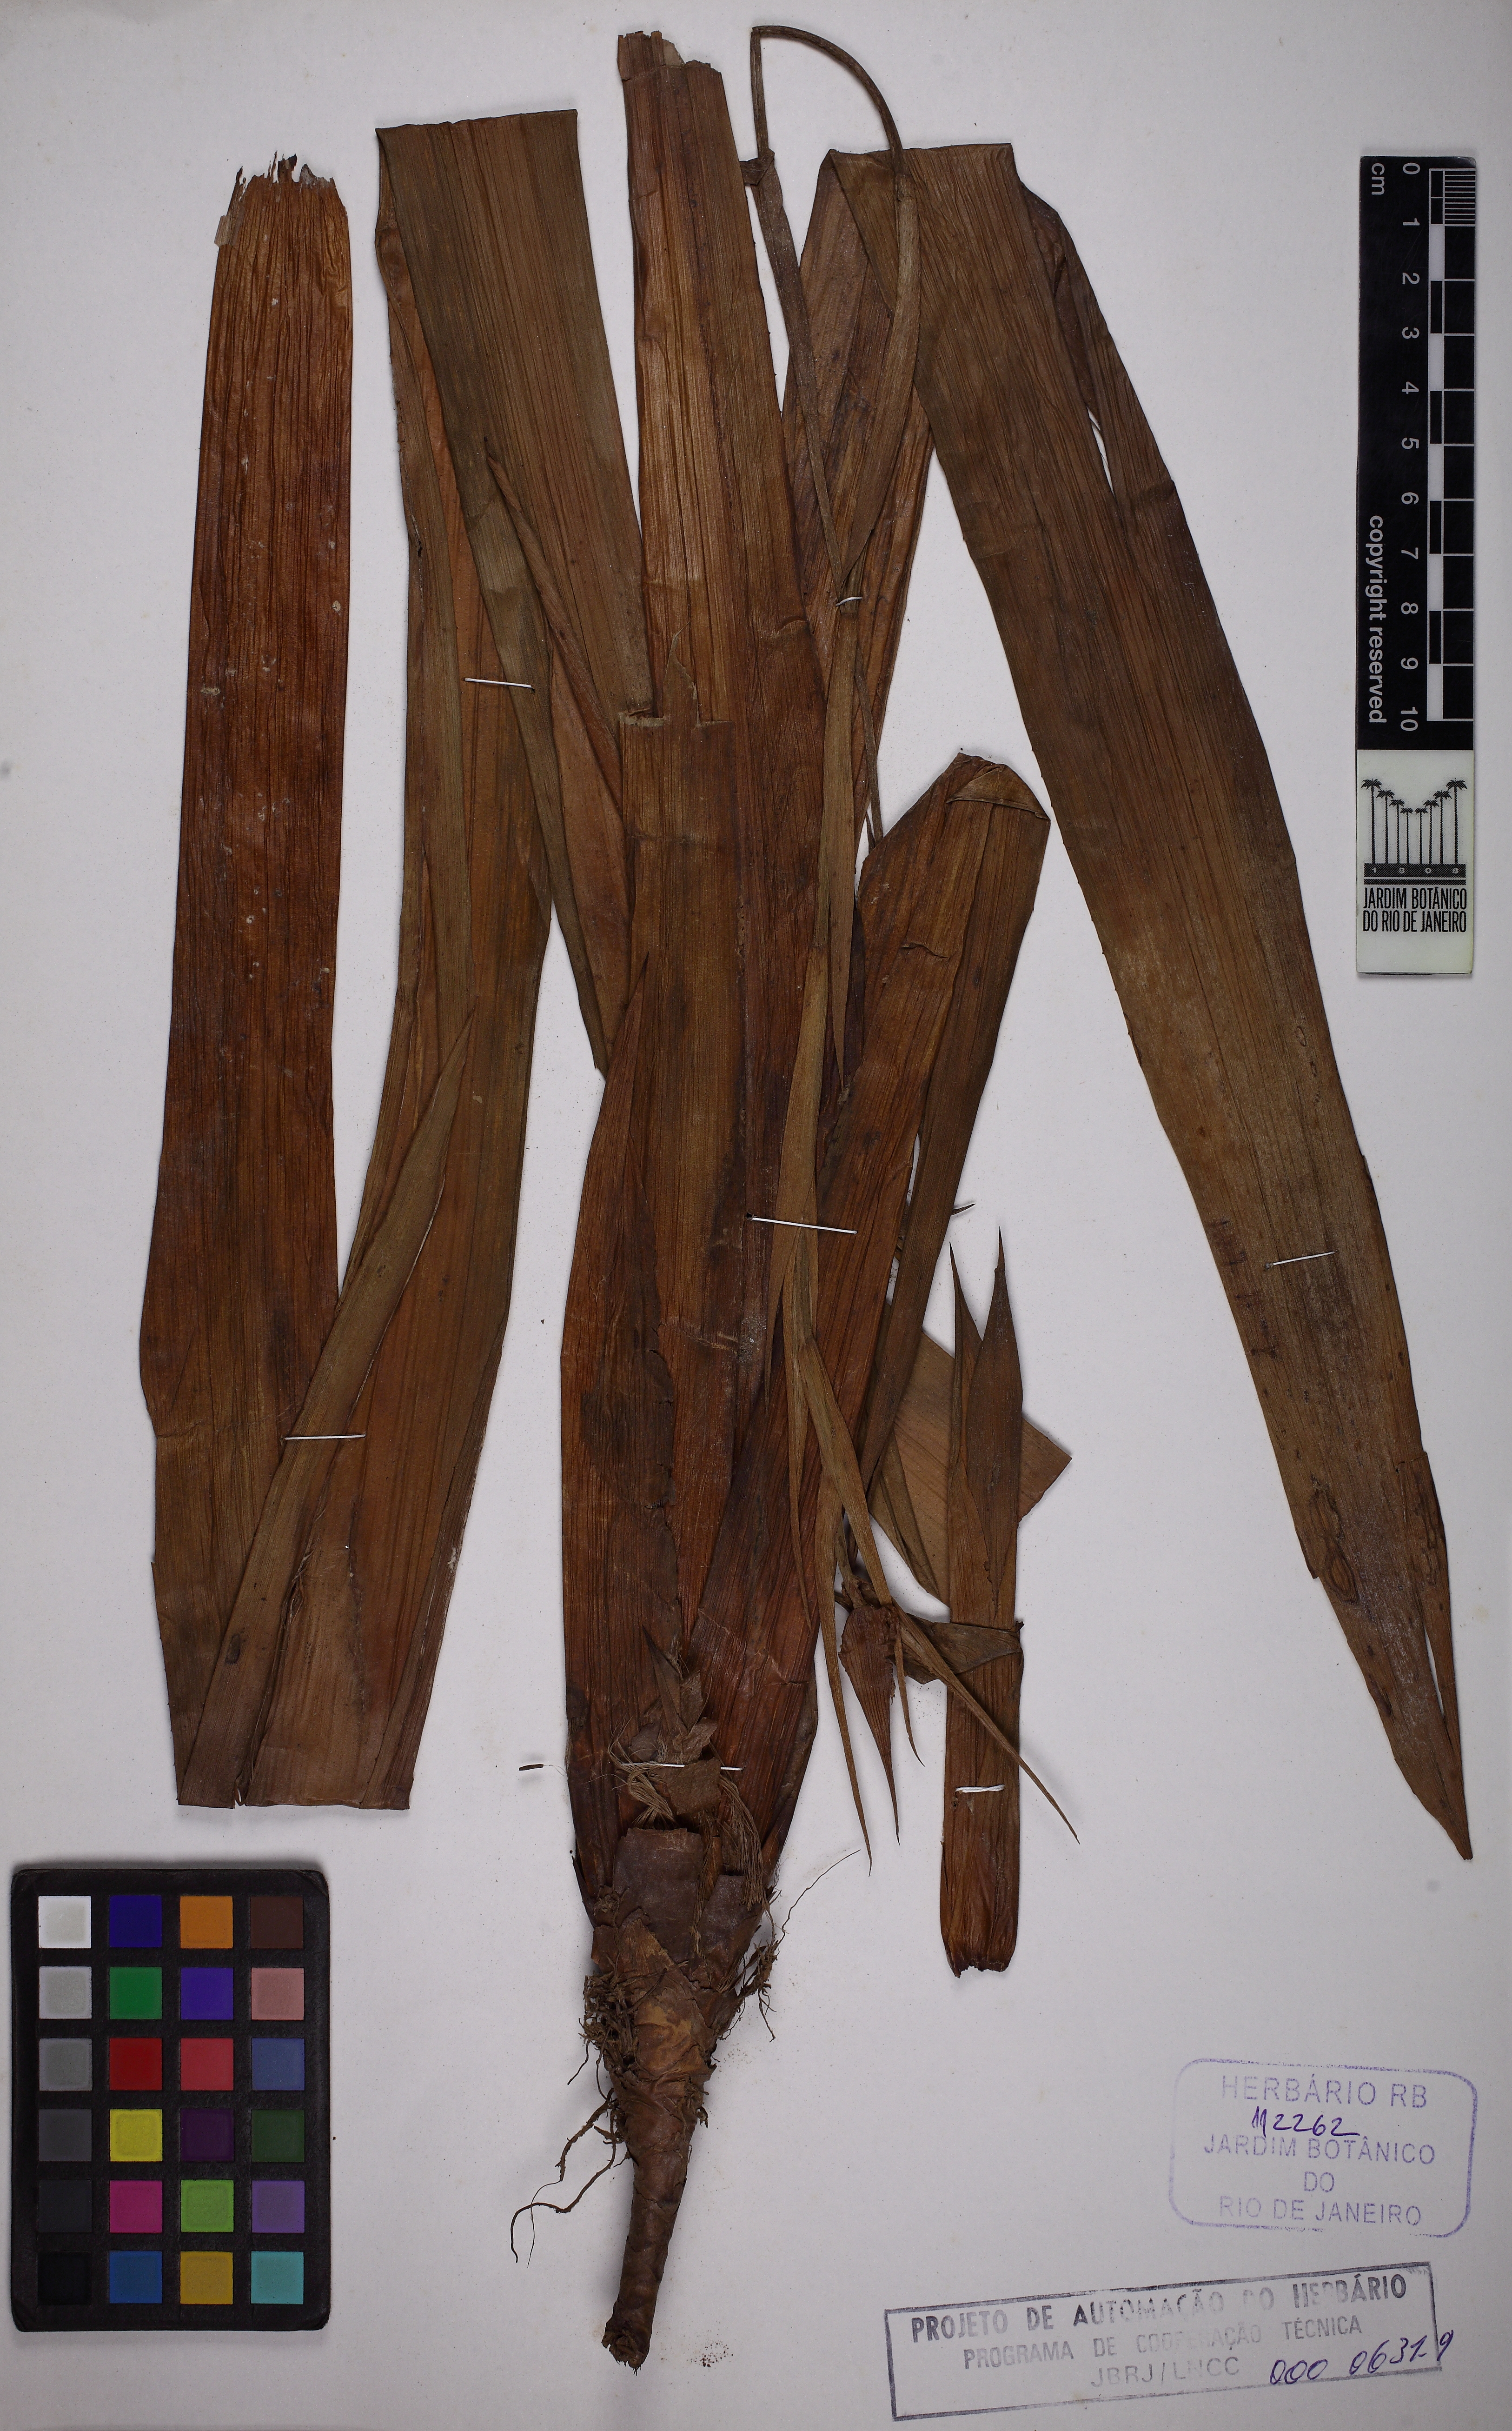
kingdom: Plantae
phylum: Tracheophyta
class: Liliopsida
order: Poales
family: Bromeliaceae
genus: Quesnelia
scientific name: Quesnelia indecora
